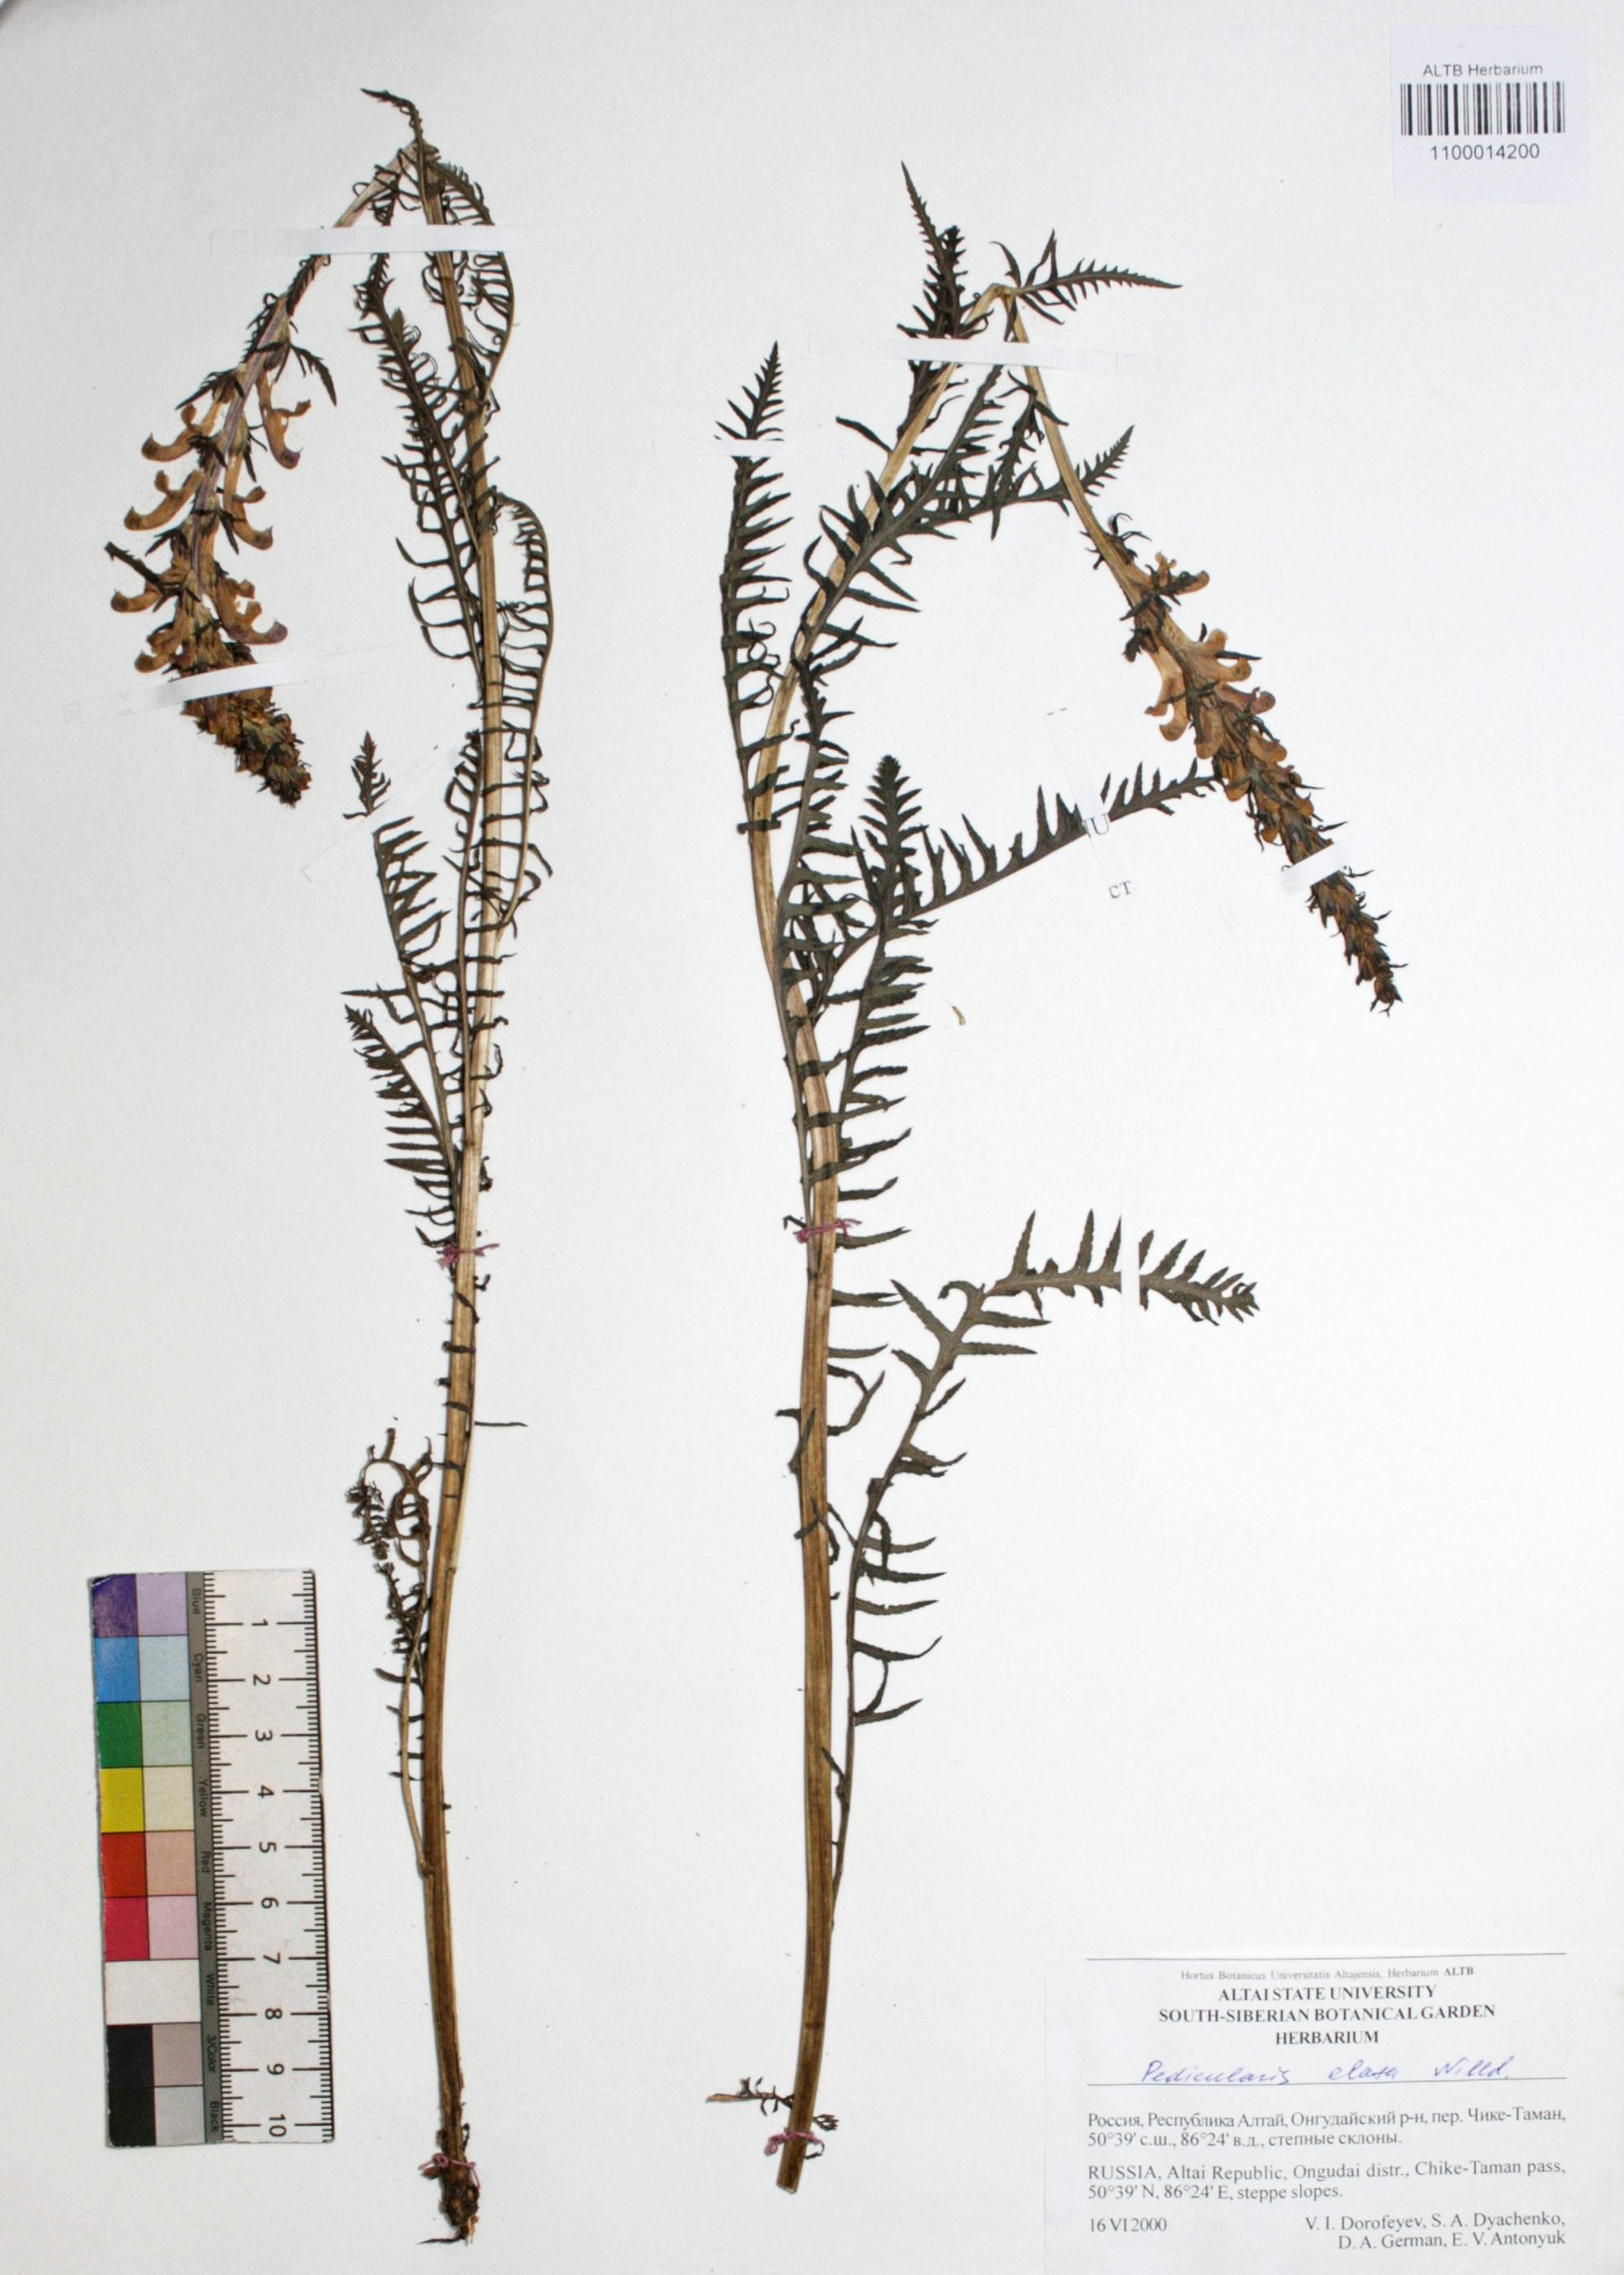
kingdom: Plantae
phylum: Tracheophyta
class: Magnoliopsida
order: Lamiales
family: Orobanchaceae
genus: Pedicularis
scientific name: Pedicularis elata
